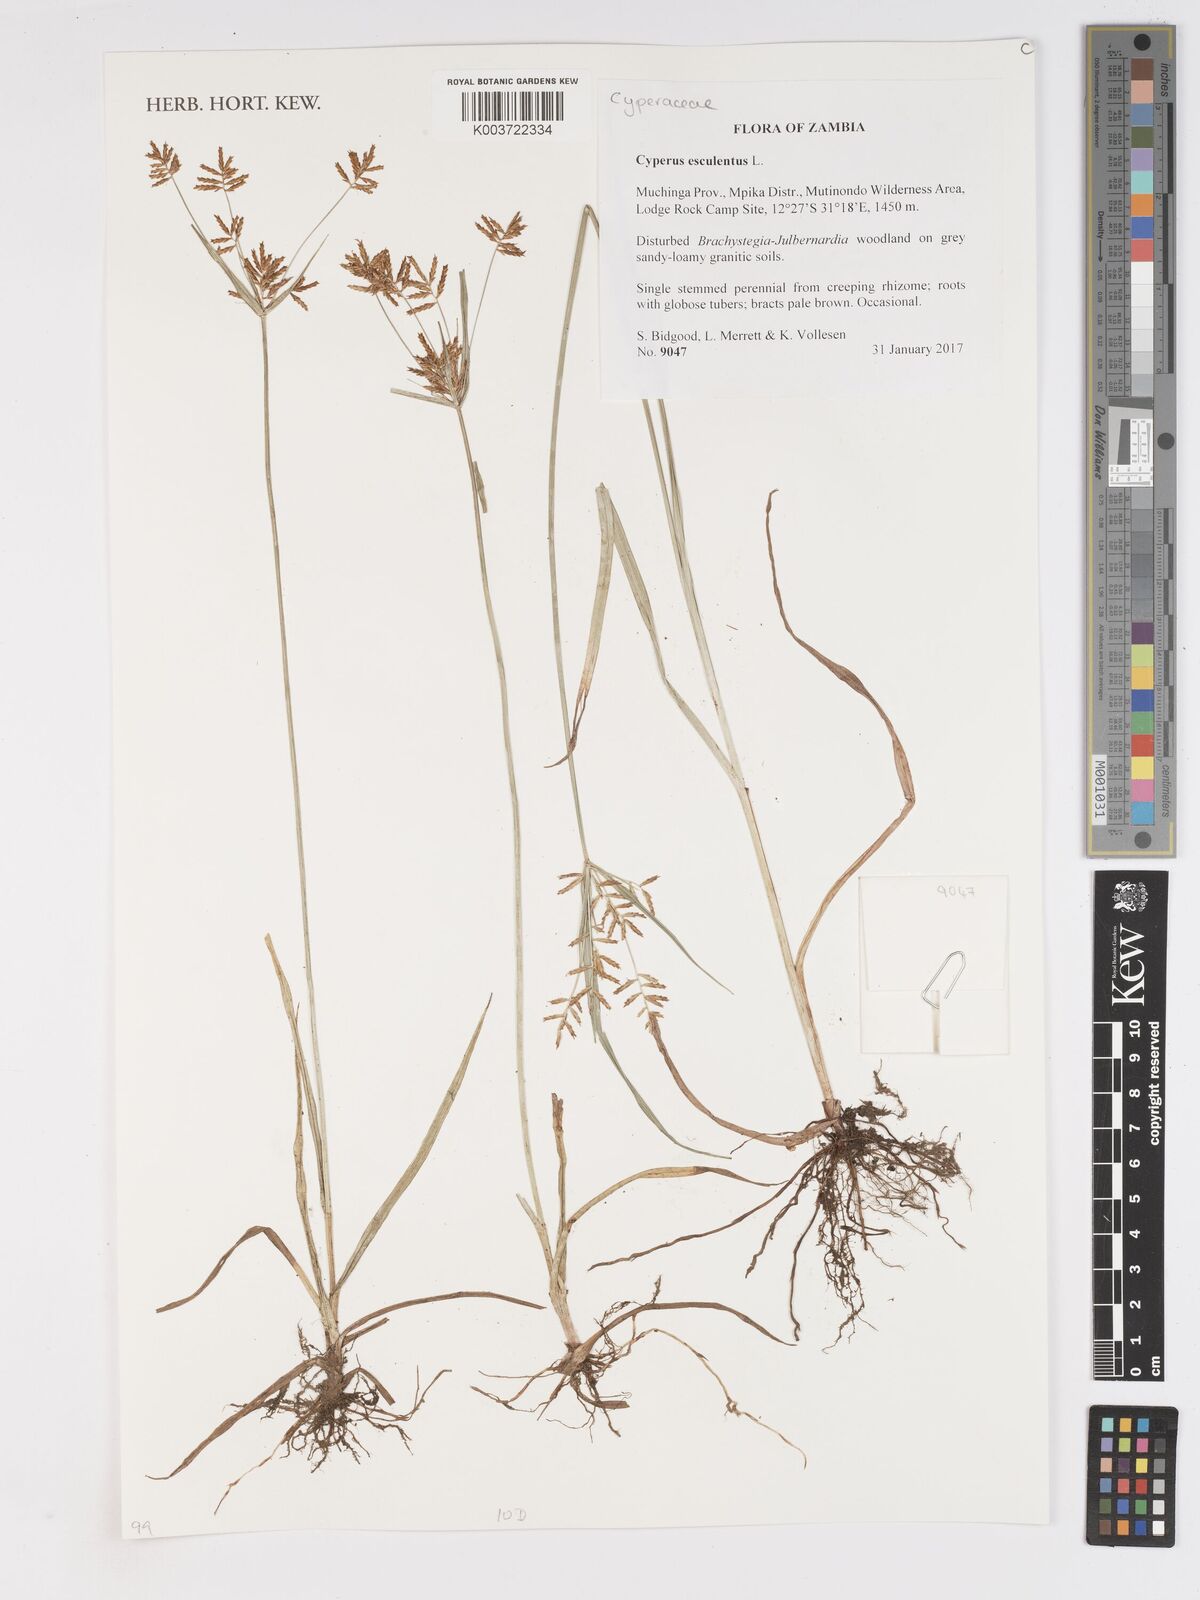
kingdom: Plantae
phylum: Tracheophyta
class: Liliopsida
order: Poales
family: Cyperaceae
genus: Cyperus
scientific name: Cyperus esculentus
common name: Yellow nutsedge
